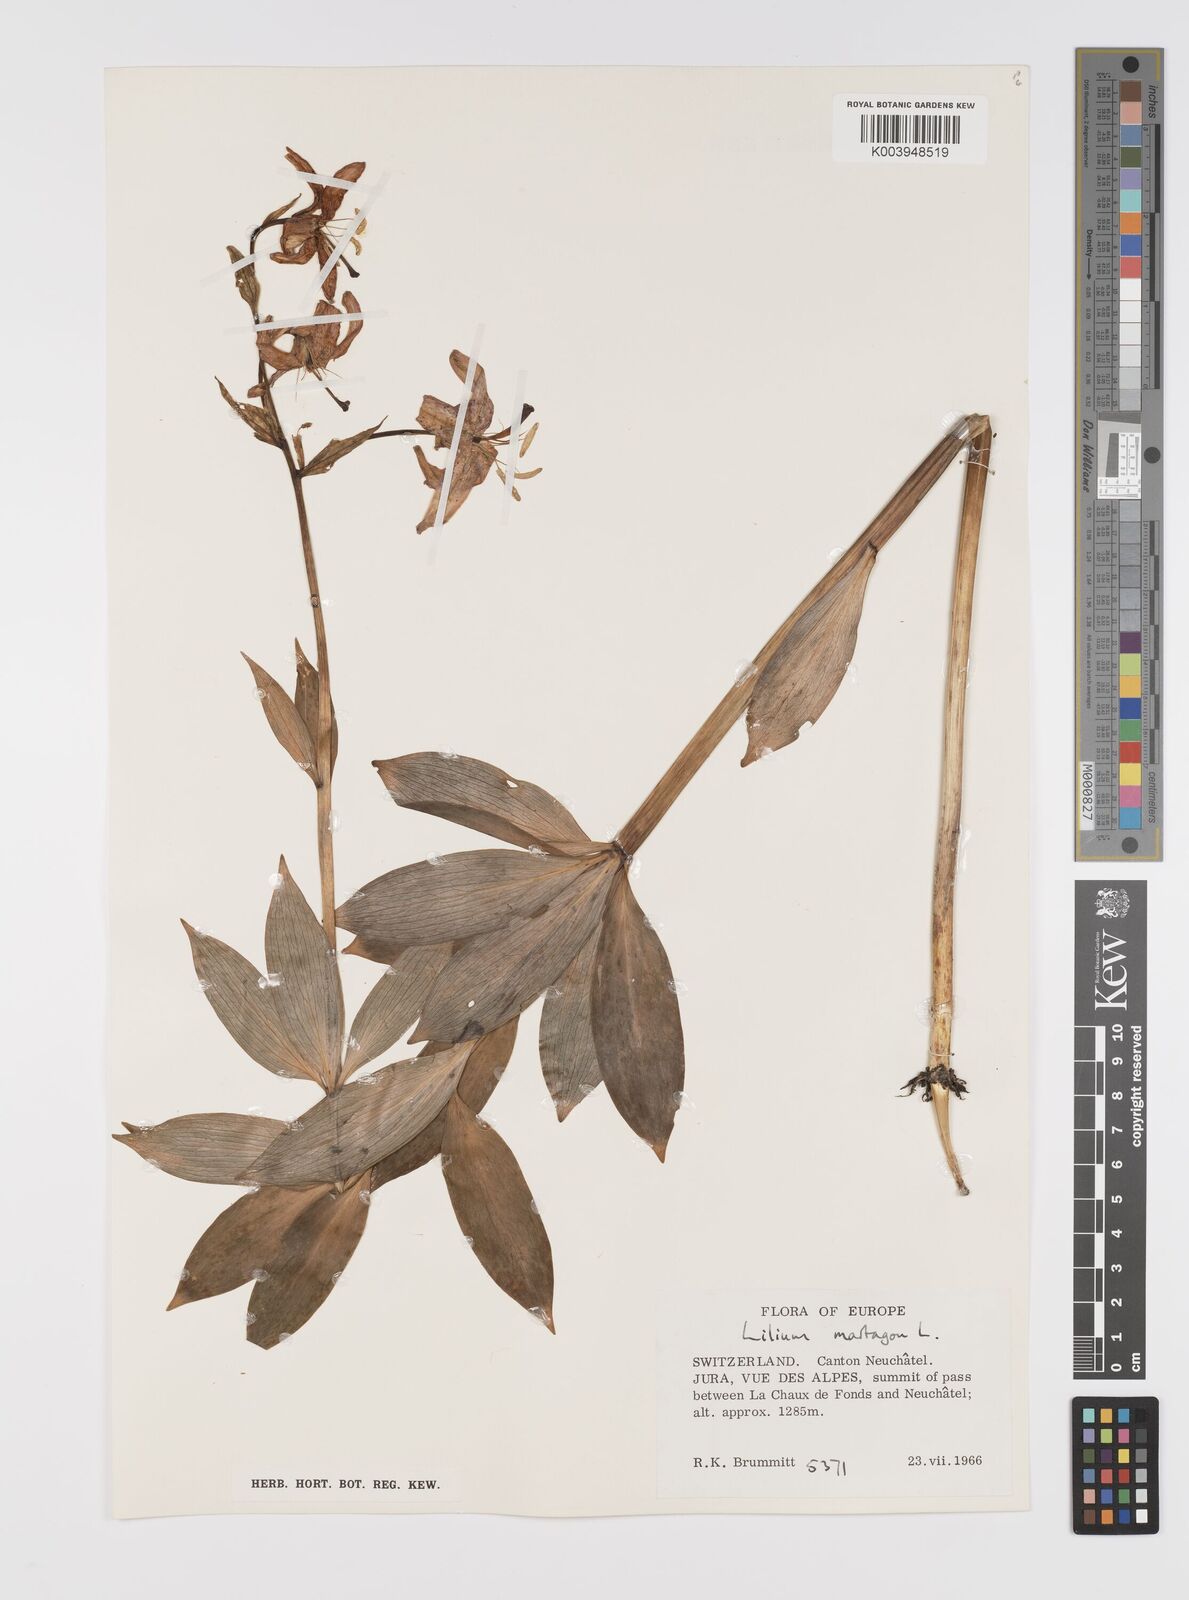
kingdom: Plantae
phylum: Tracheophyta
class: Liliopsida
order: Liliales
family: Liliaceae
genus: Lilium
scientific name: Lilium martagon
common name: Martagon lily
